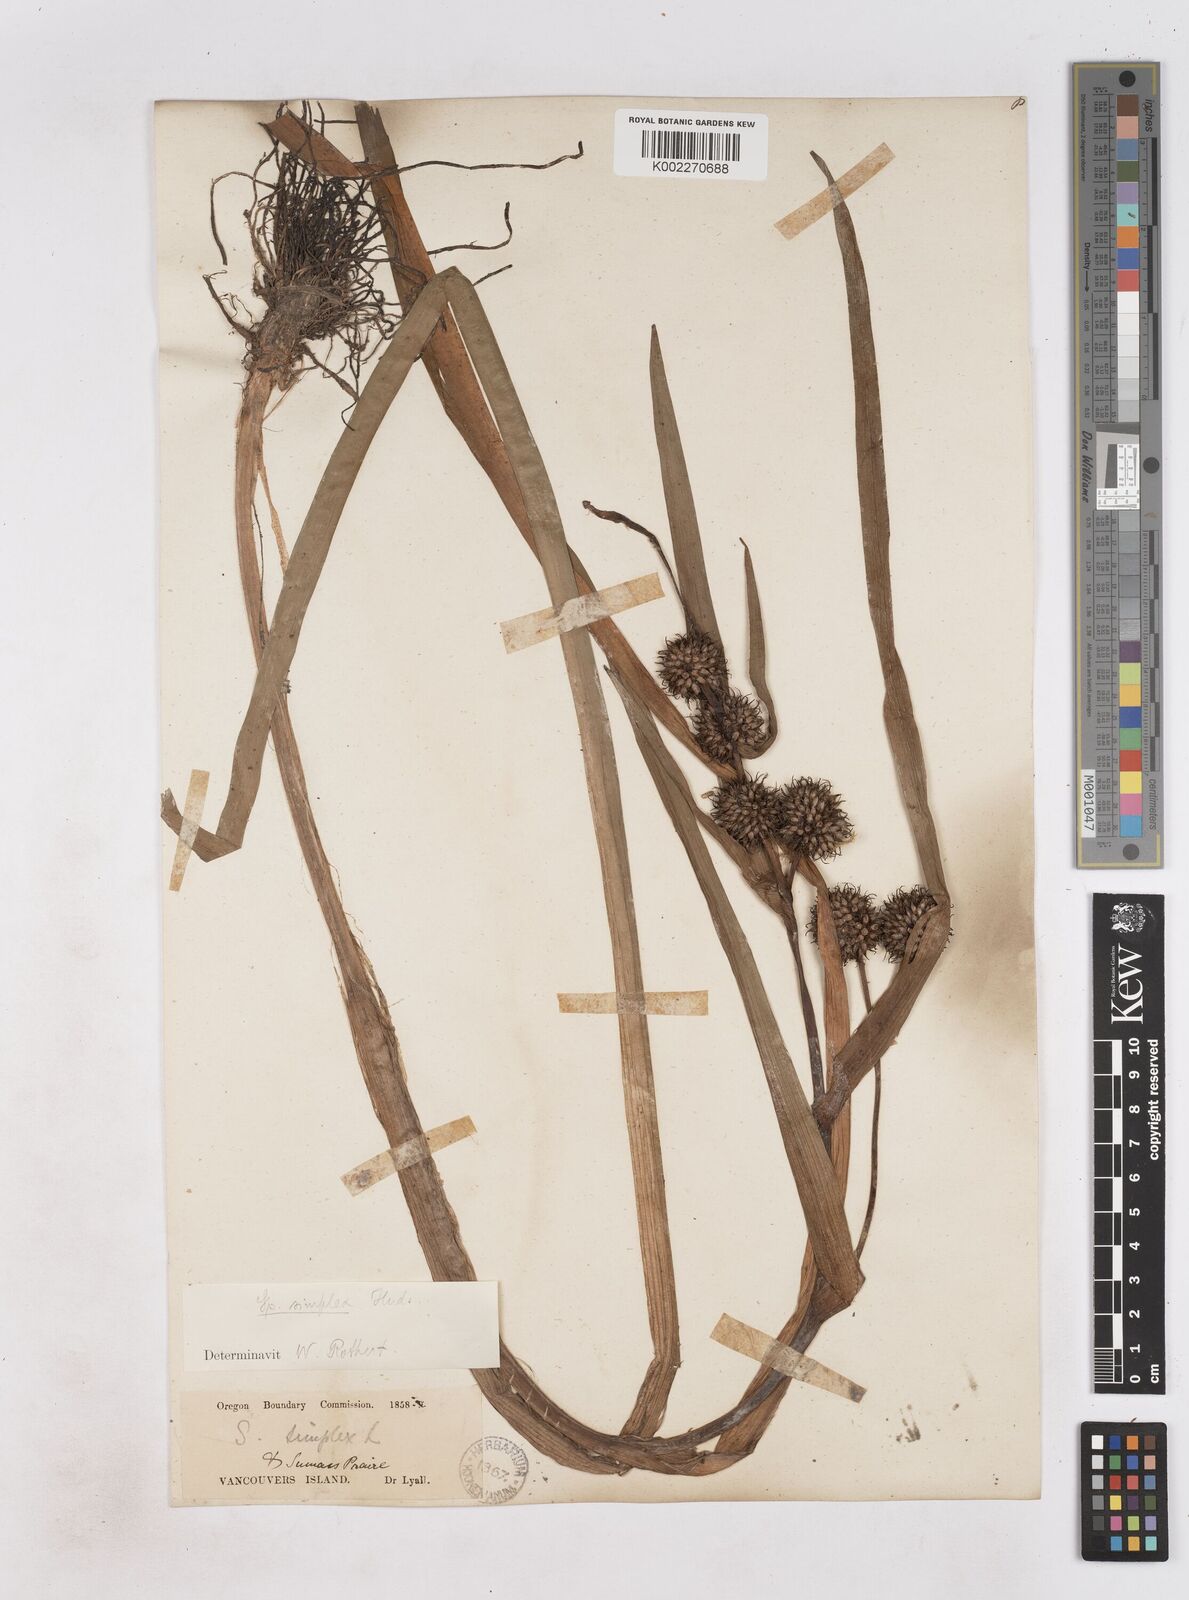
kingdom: Plantae
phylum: Tracheophyta
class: Liliopsida
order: Poales
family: Typhaceae
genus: Sparganium
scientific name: Sparganium emersum
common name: Unbranched bur-reed
